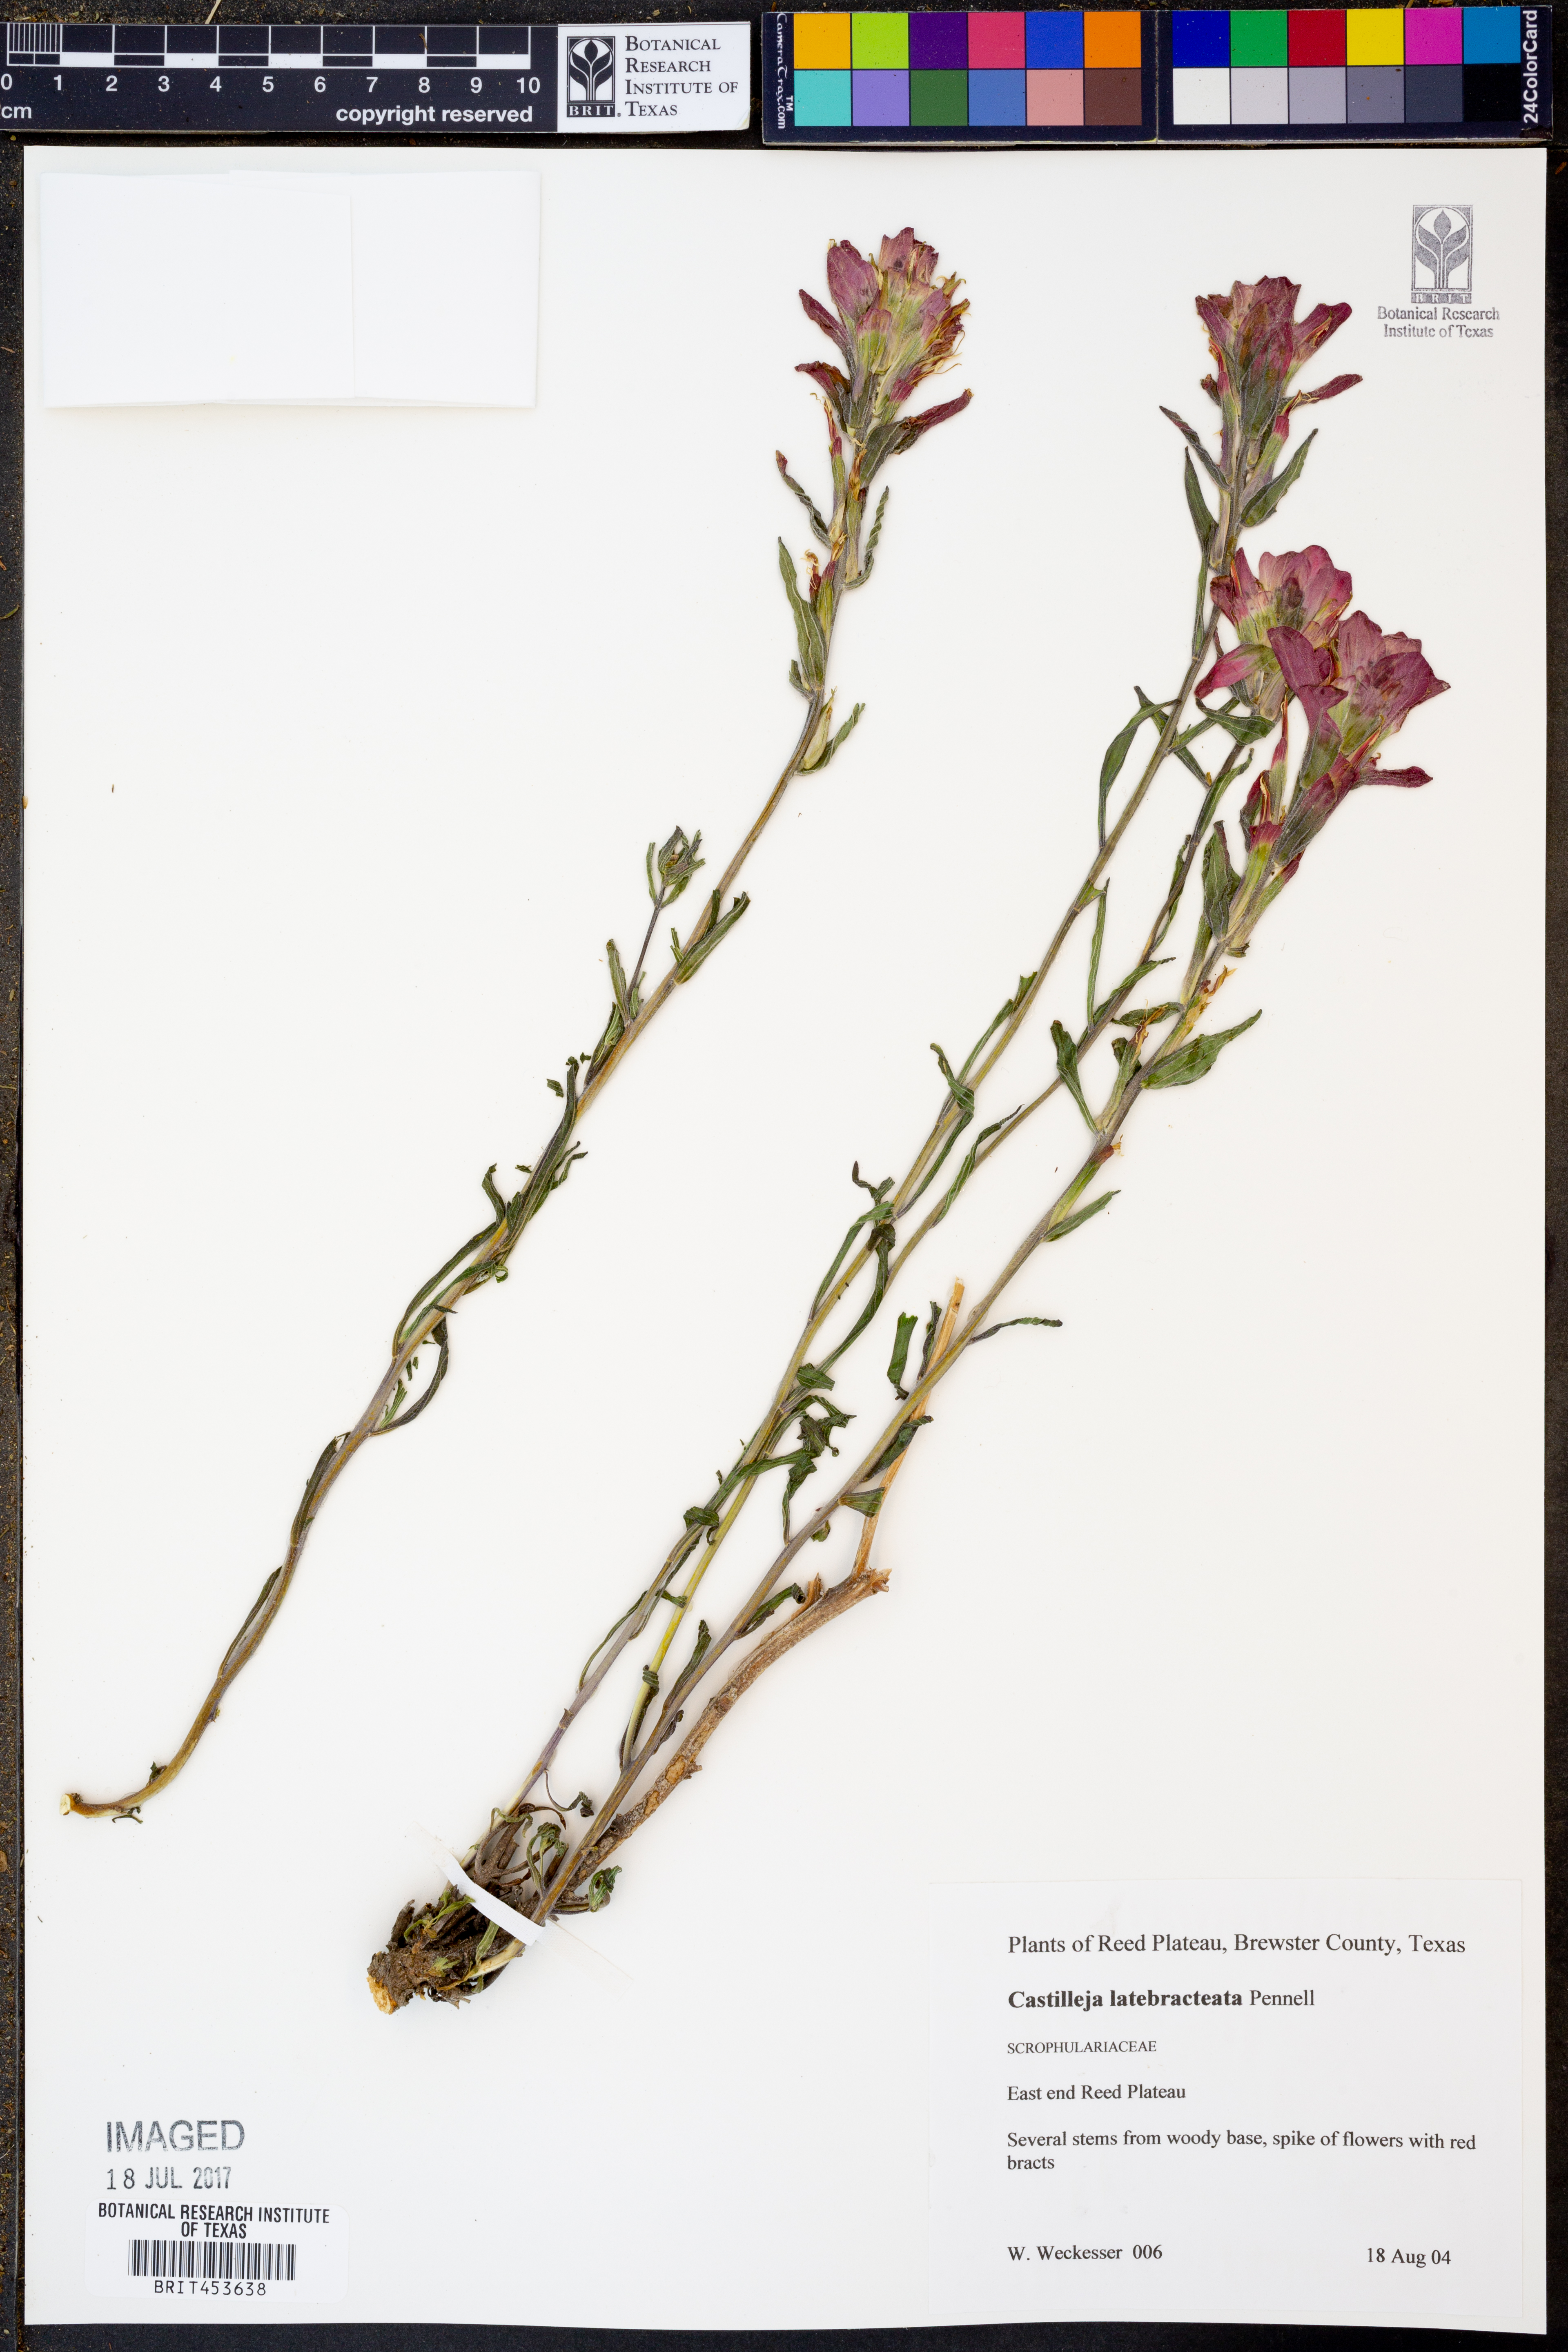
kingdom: Plantae
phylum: Tracheophyta
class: Magnoliopsida
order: Lamiales
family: Orobanchaceae
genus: Castilleja
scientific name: Castilleja rigida
